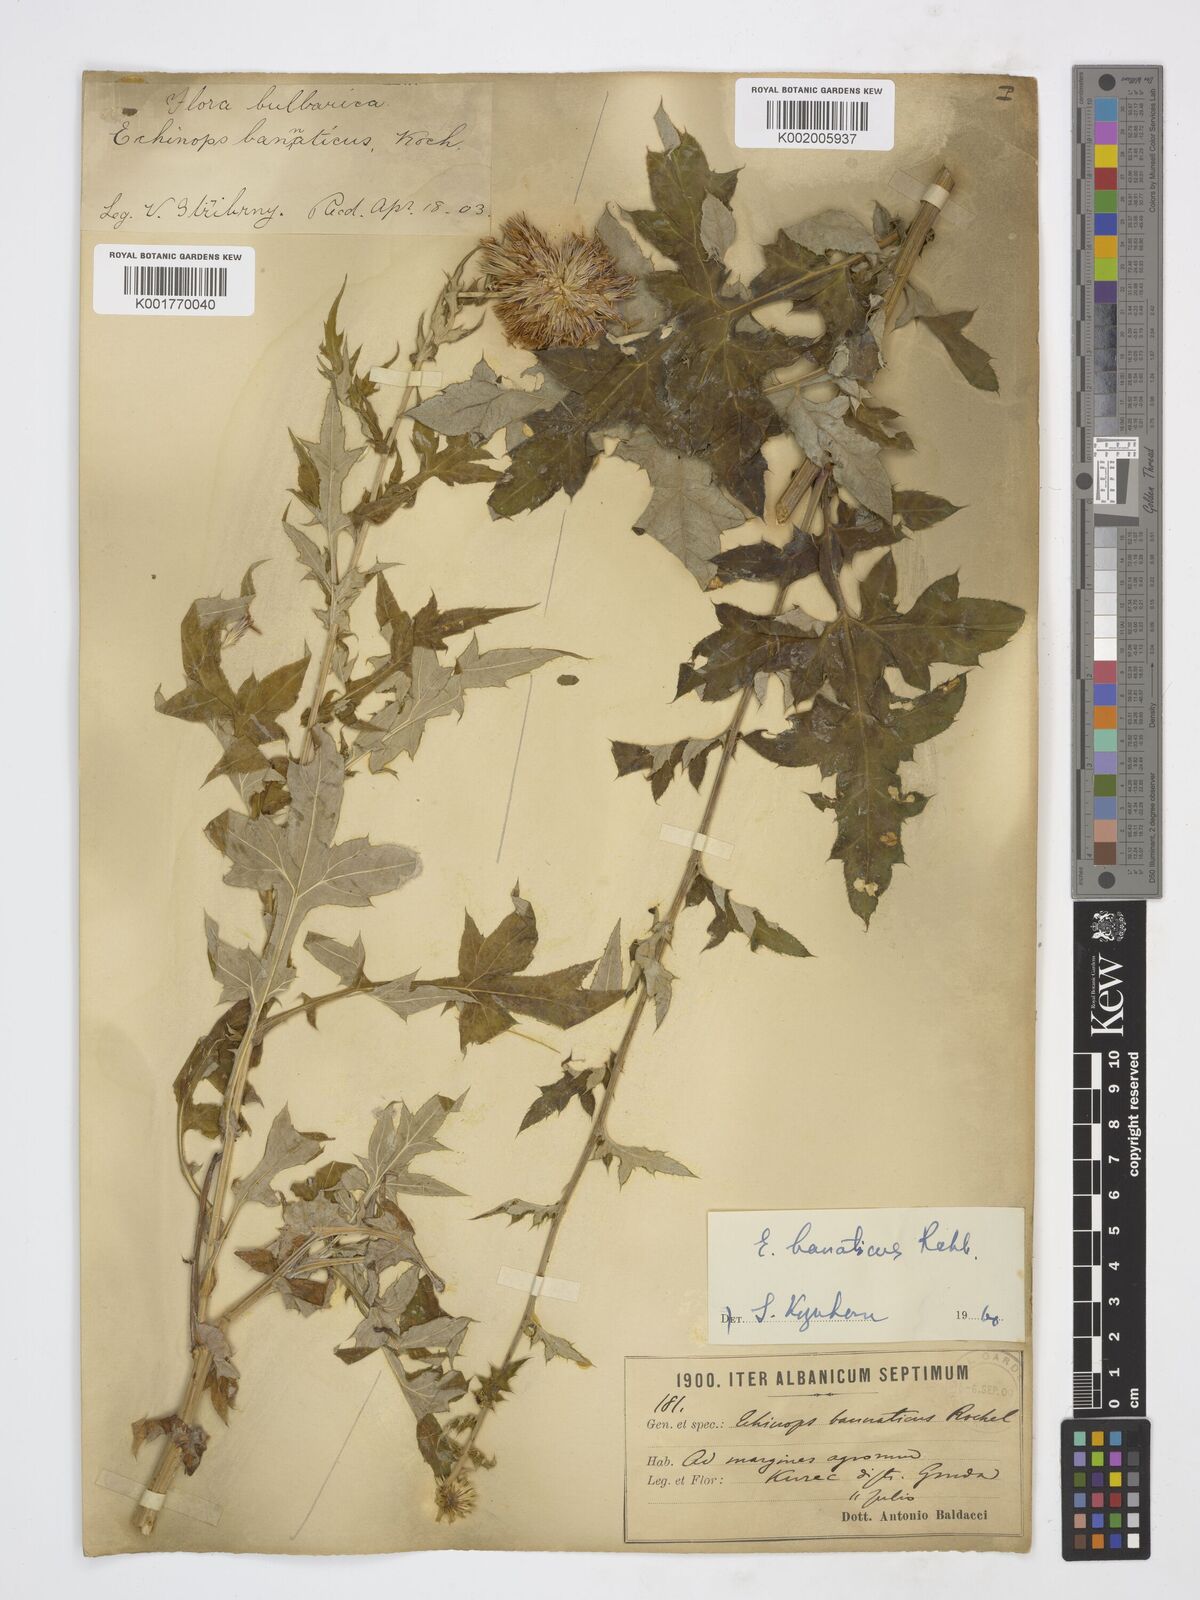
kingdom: Plantae
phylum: Tracheophyta
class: Magnoliopsida
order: Asterales
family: Asteraceae
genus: Echinops
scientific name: Echinops bannaticus
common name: Blue globe-thistle
